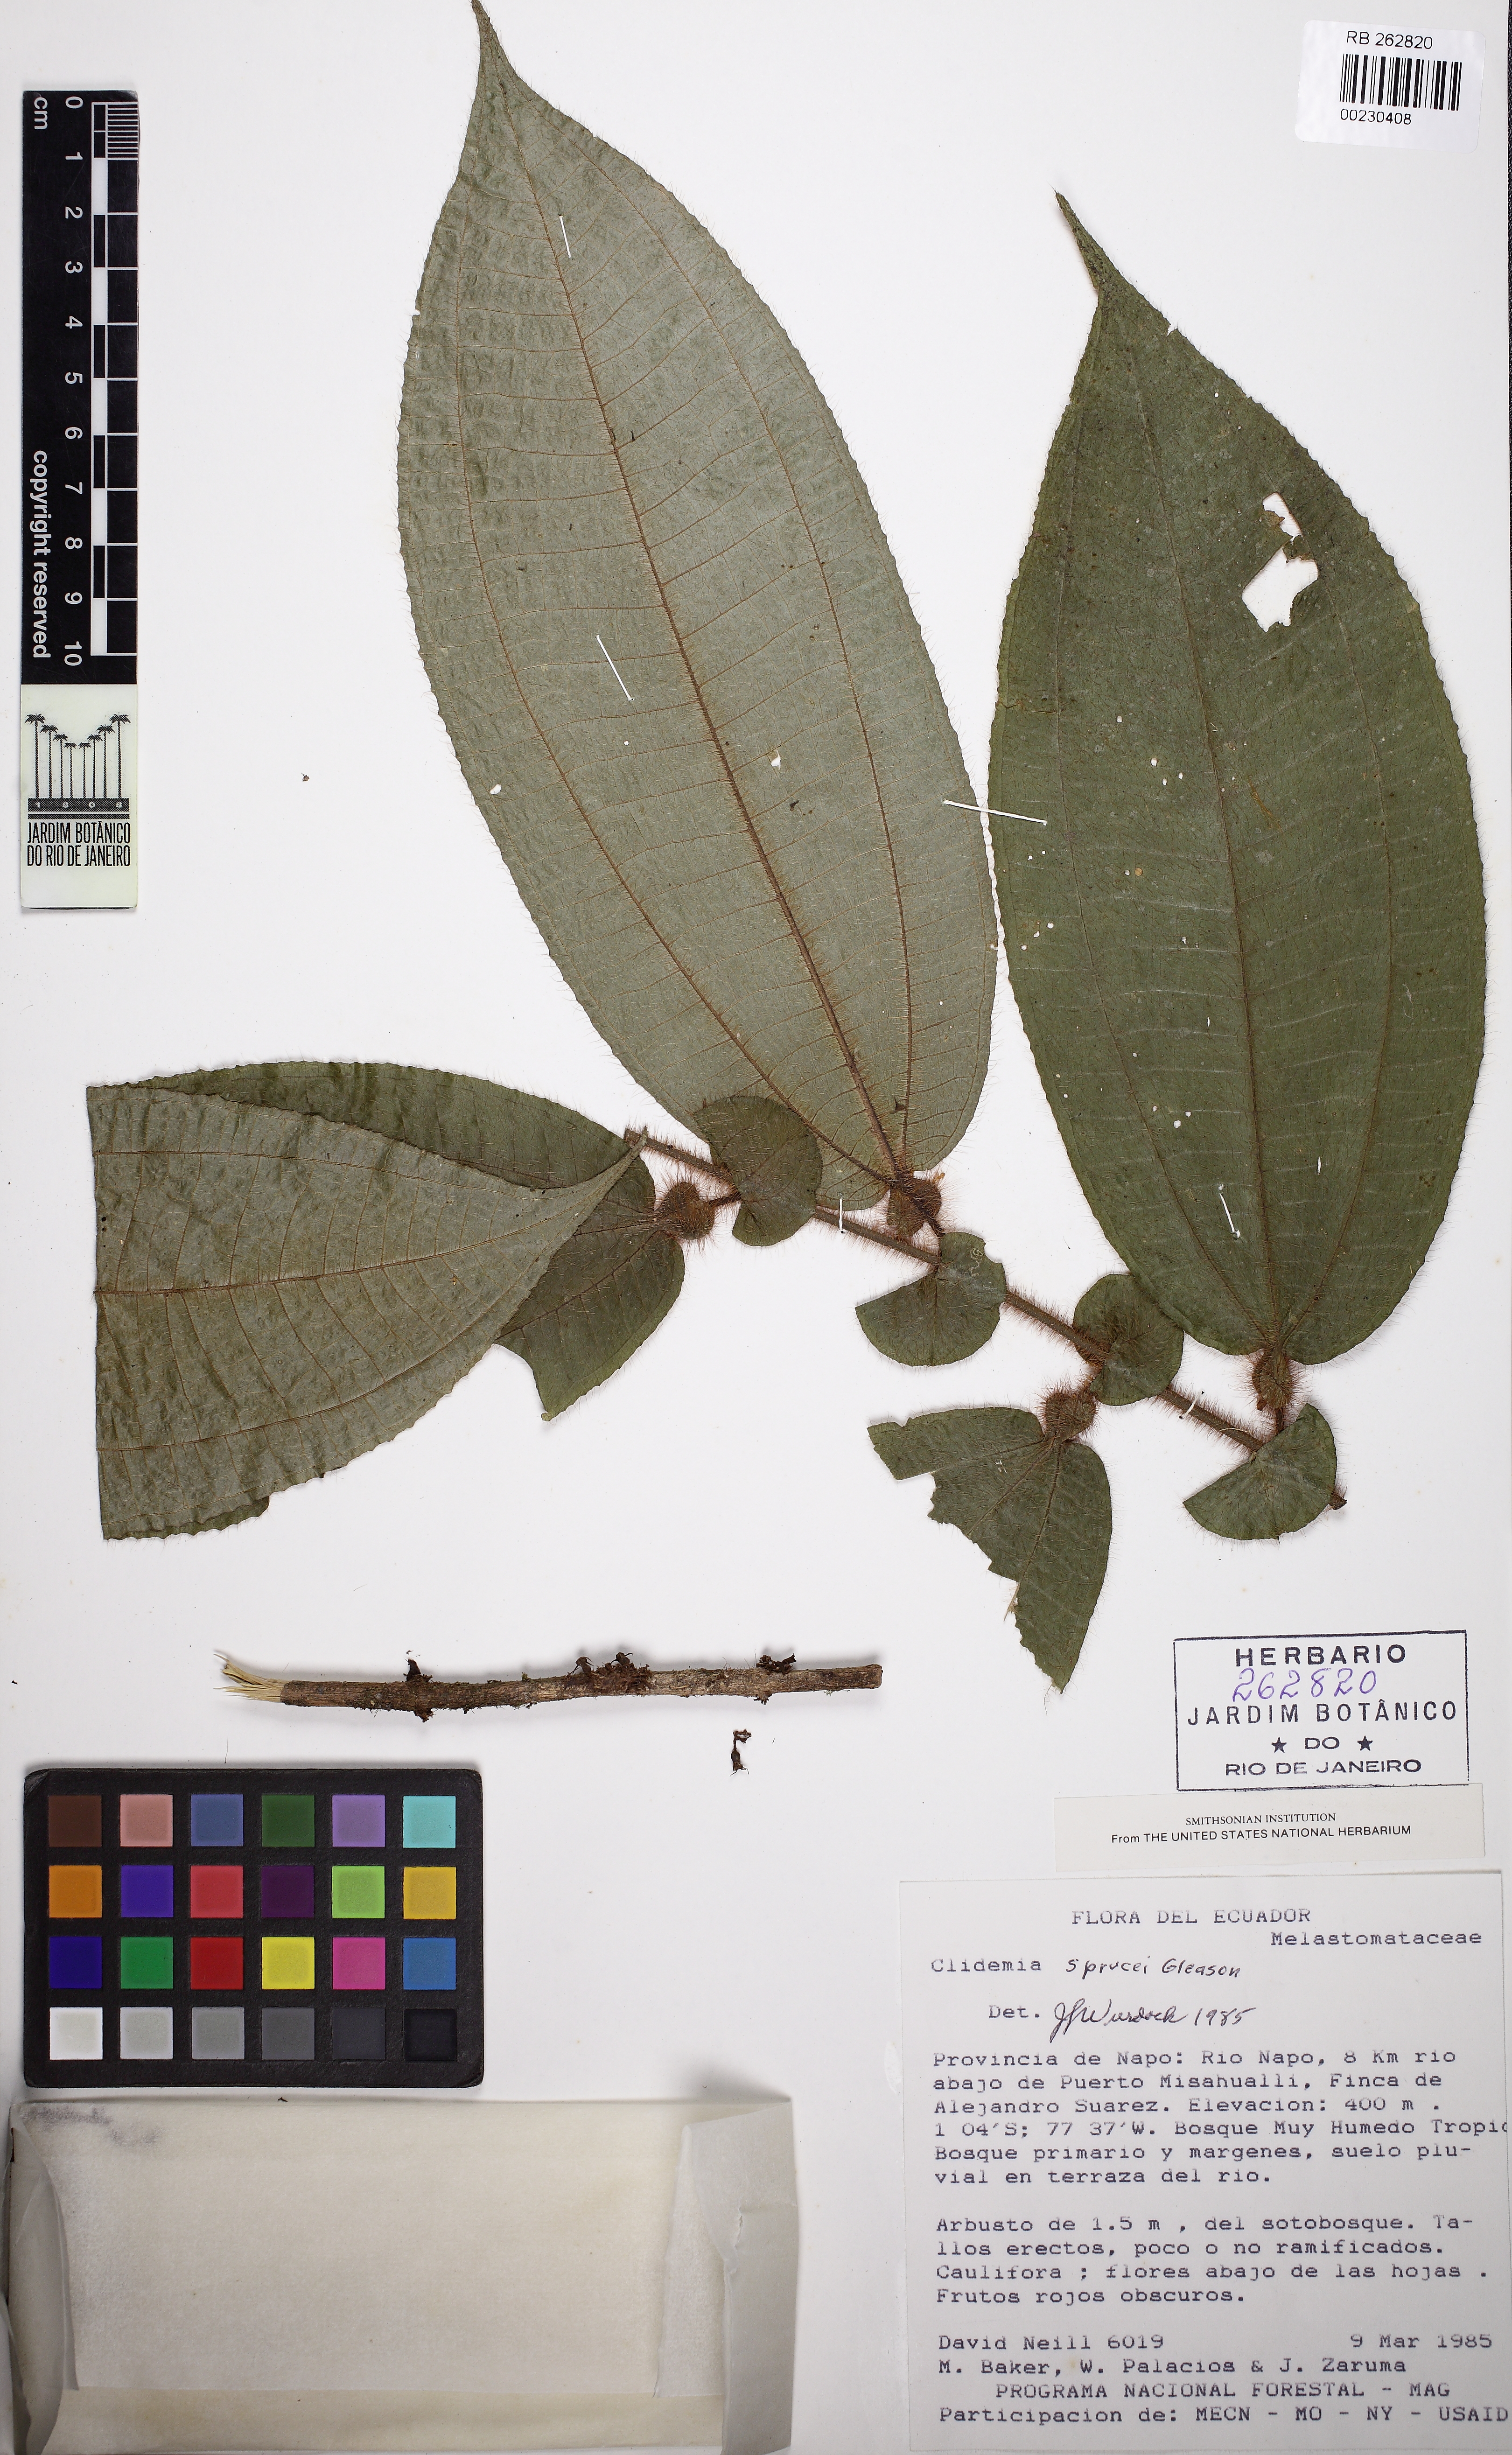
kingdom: Plantae
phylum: Tracheophyta
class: Magnoliopsida
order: Myrtales
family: Melastomataceae
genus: Miconia
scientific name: Miconia richardsprucei
